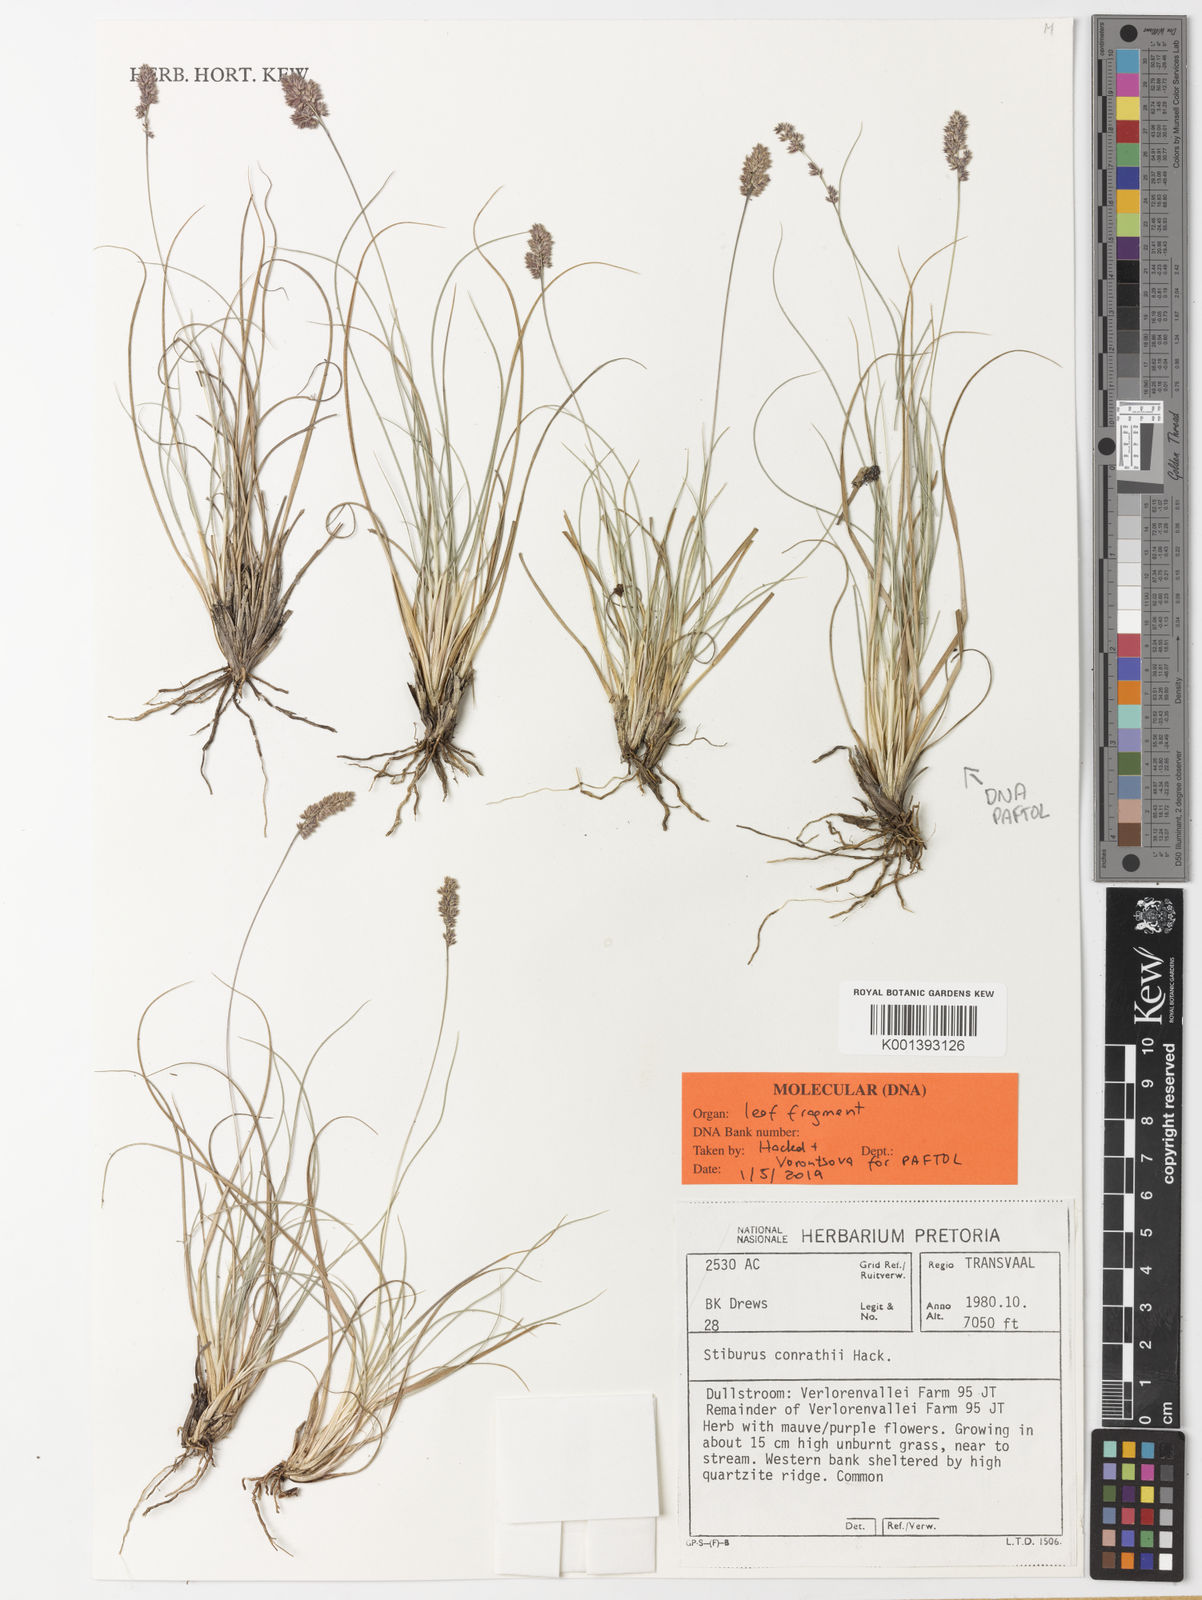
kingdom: Plantae
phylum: Tracheophyta
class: Liliopsida
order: Poales
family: Poaceae
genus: Stiburus
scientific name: Stiburus conrathii
